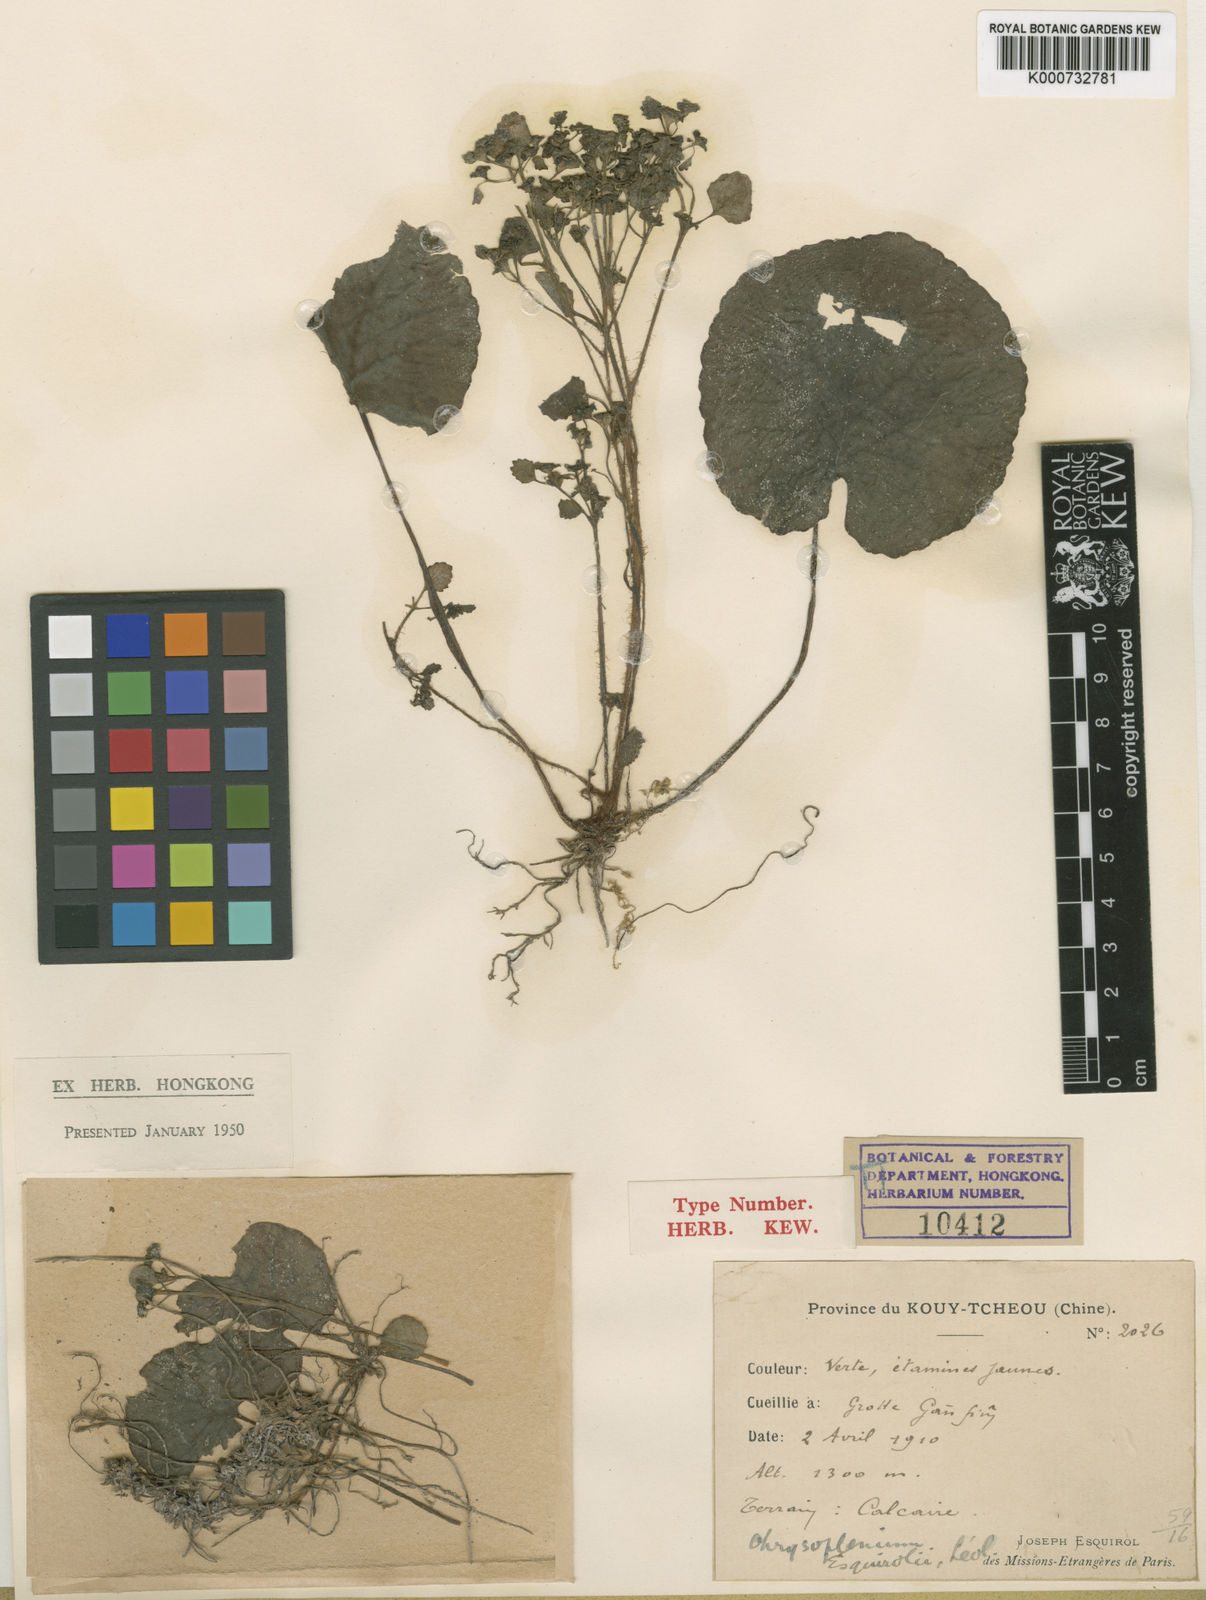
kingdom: Plantae
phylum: Tracheophyta
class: Magnoliopsida
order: Saxifragales
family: Saxifragaceae
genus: Chrysosplenium
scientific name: Chrysosplenium
